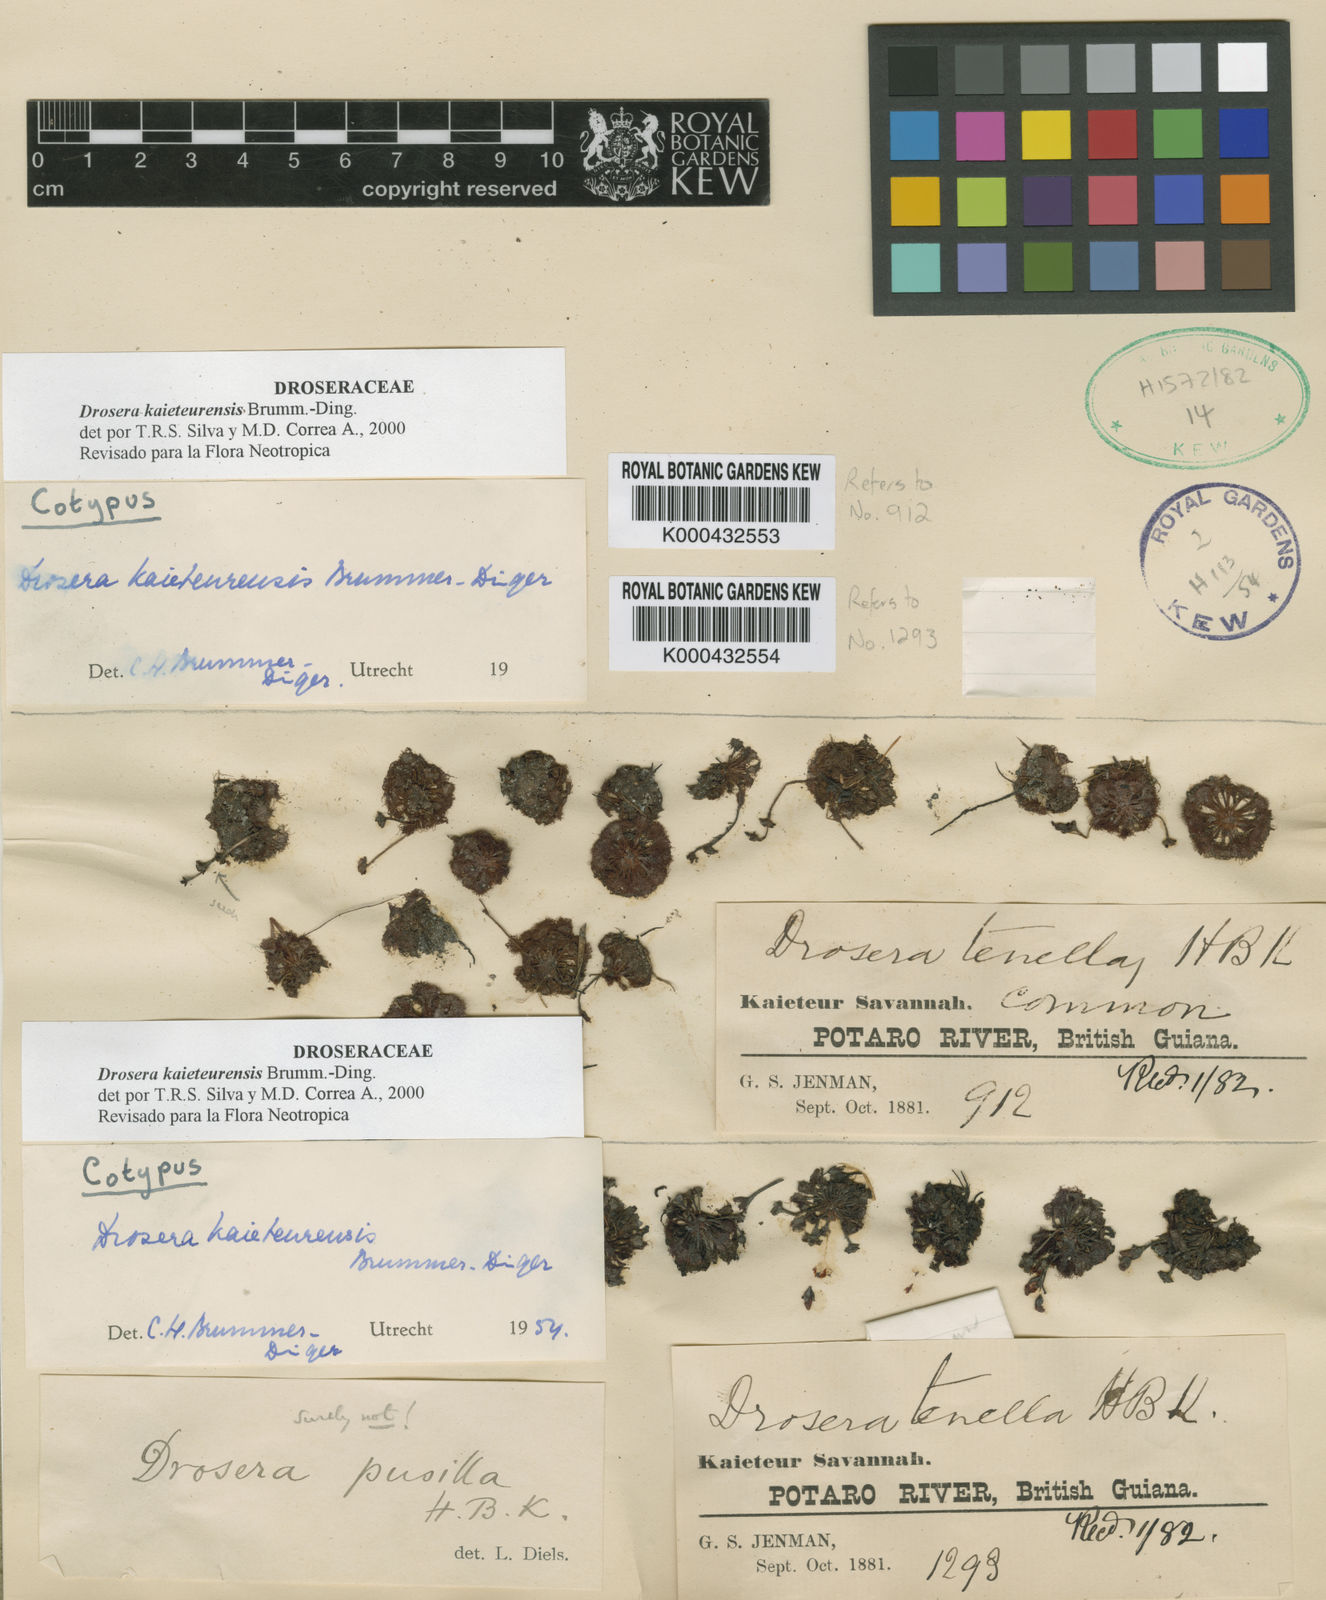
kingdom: Plantae
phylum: Tracheophyta
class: Magnoliopsida
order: Caryophyllales
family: Droseraceae
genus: Drosera
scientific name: Drosera kaieteurensis
